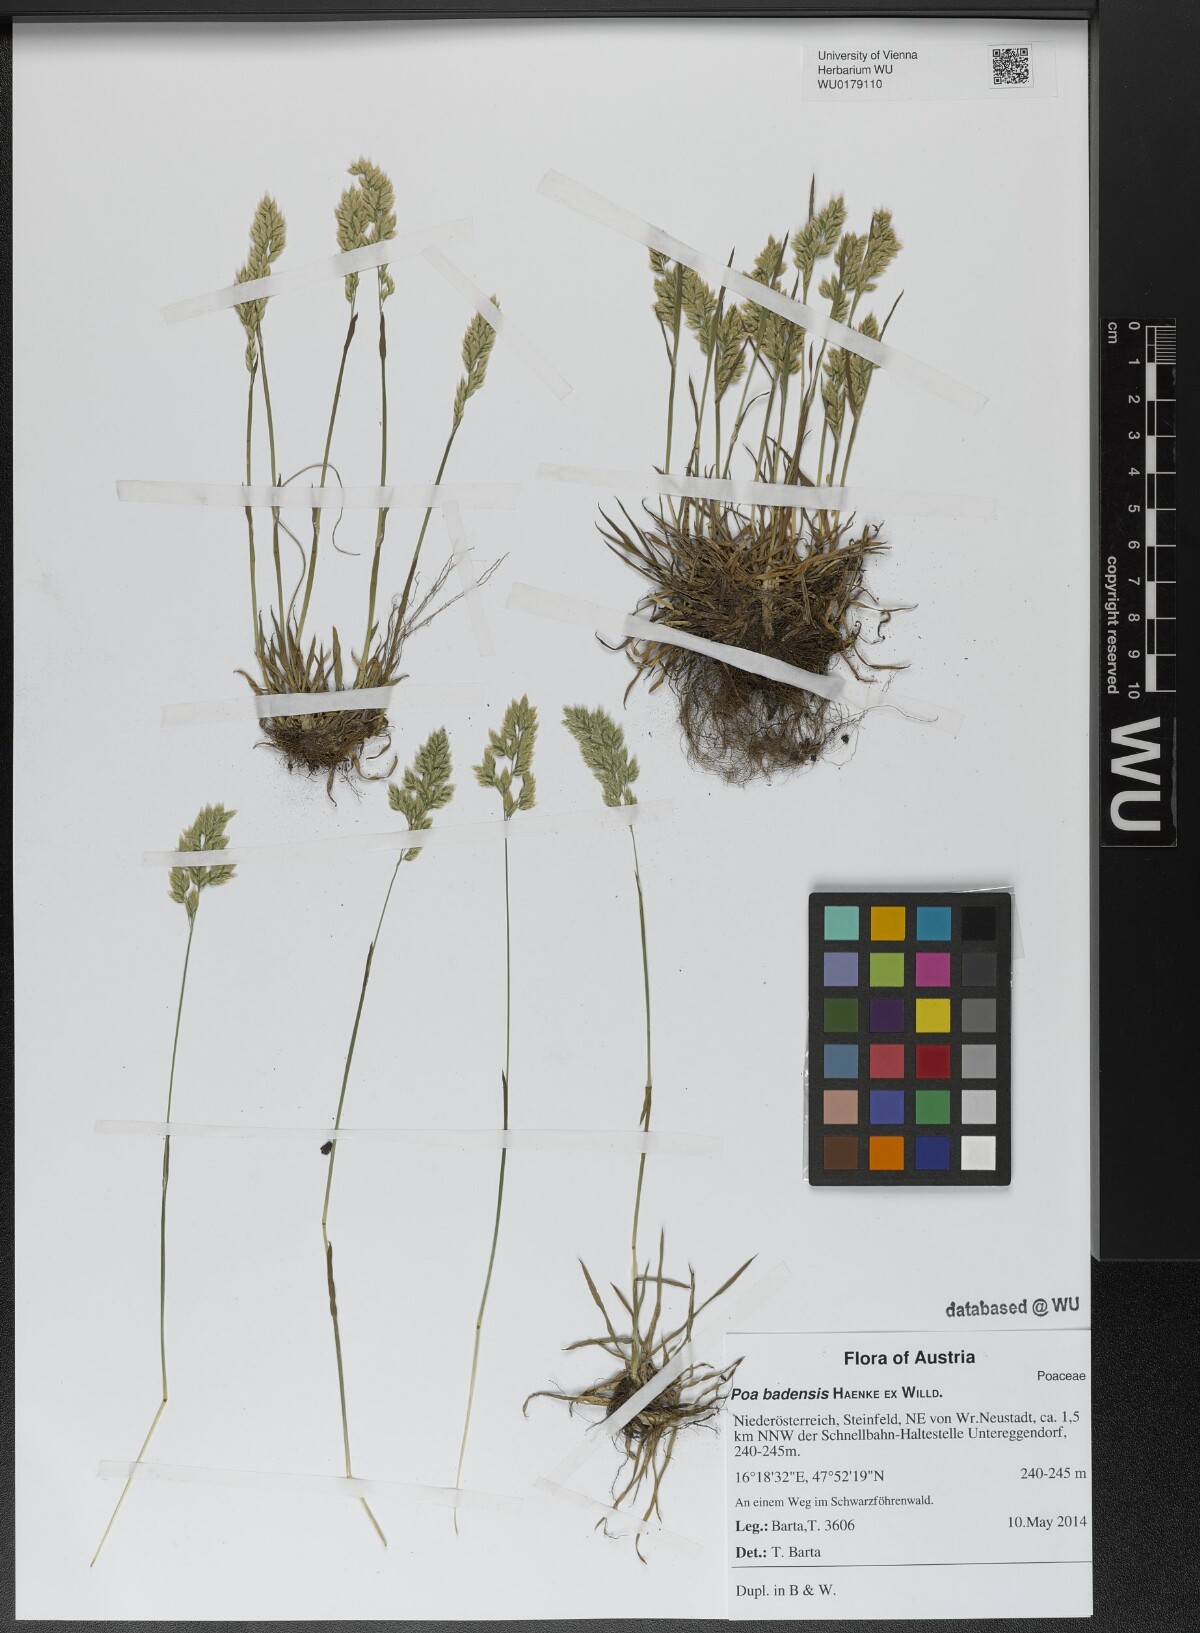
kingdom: Plantae
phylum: Tracheophyta
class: Liliopsida
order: Poales
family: Poaceae
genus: Poa
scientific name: Poa badensis
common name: Baden's bluegrass
